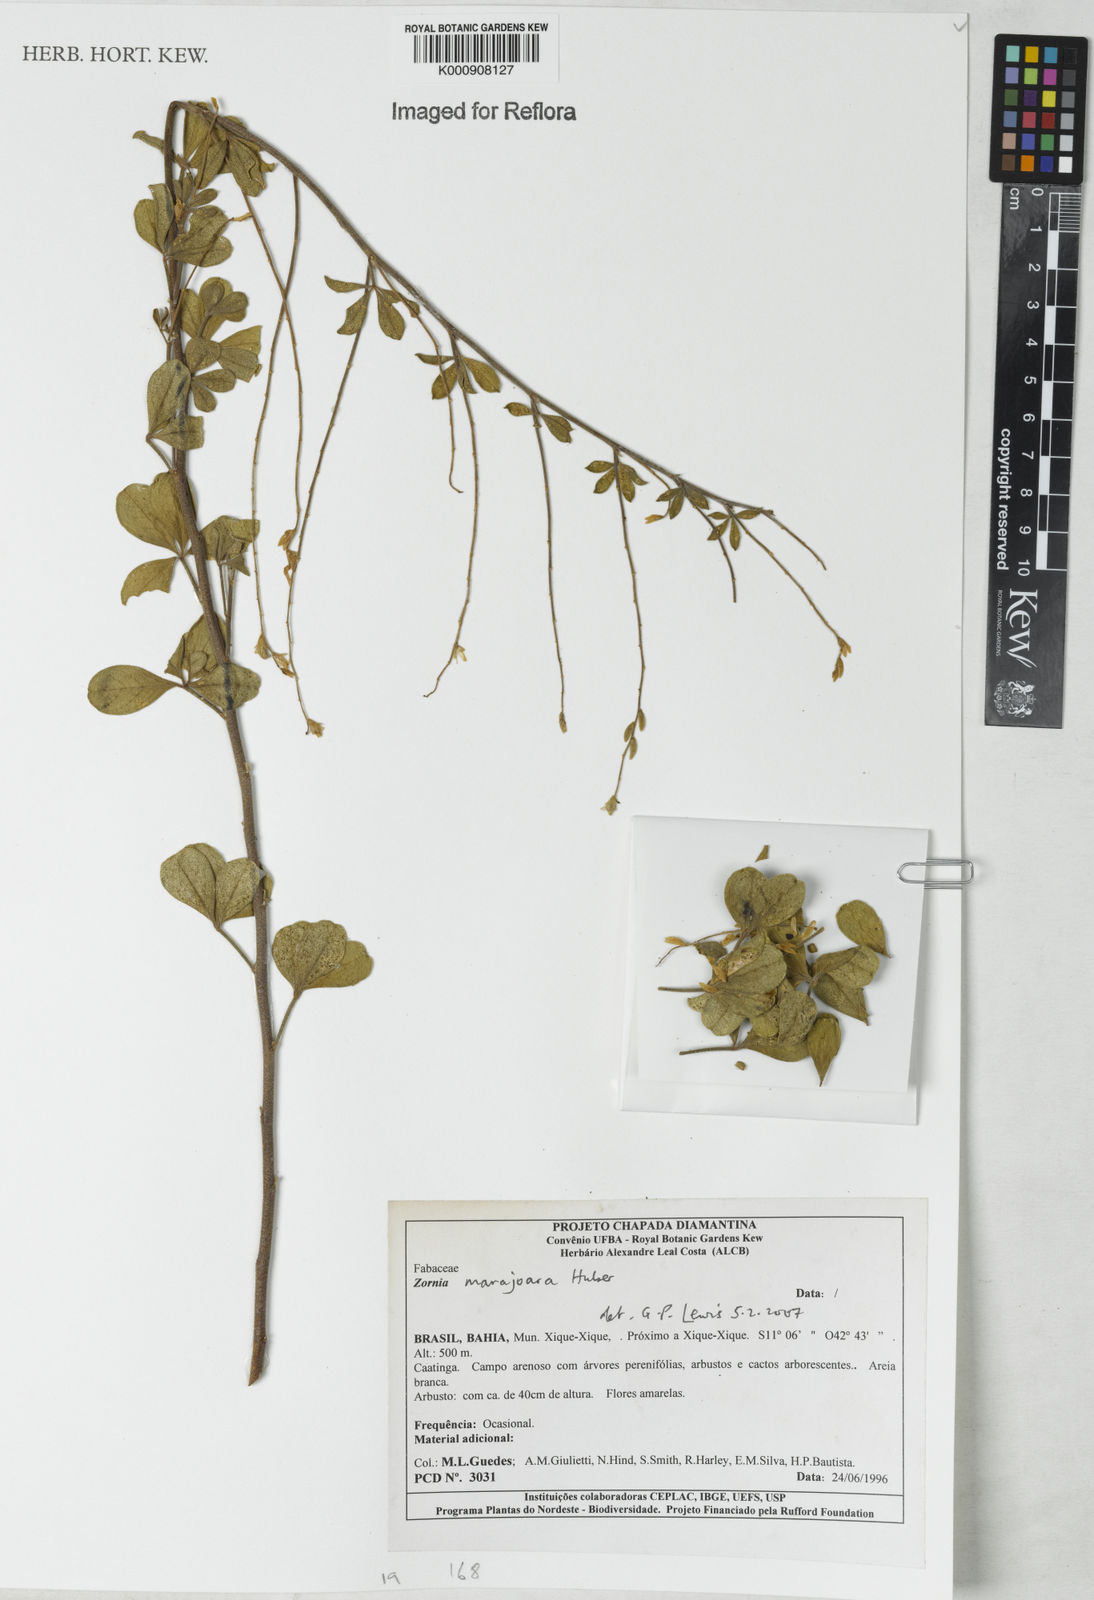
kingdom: Plantae
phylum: Tracheophyta
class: Magnoliopsida
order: Fabales
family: Fabaceae
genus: Zornia
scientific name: Zornia guanipensis
